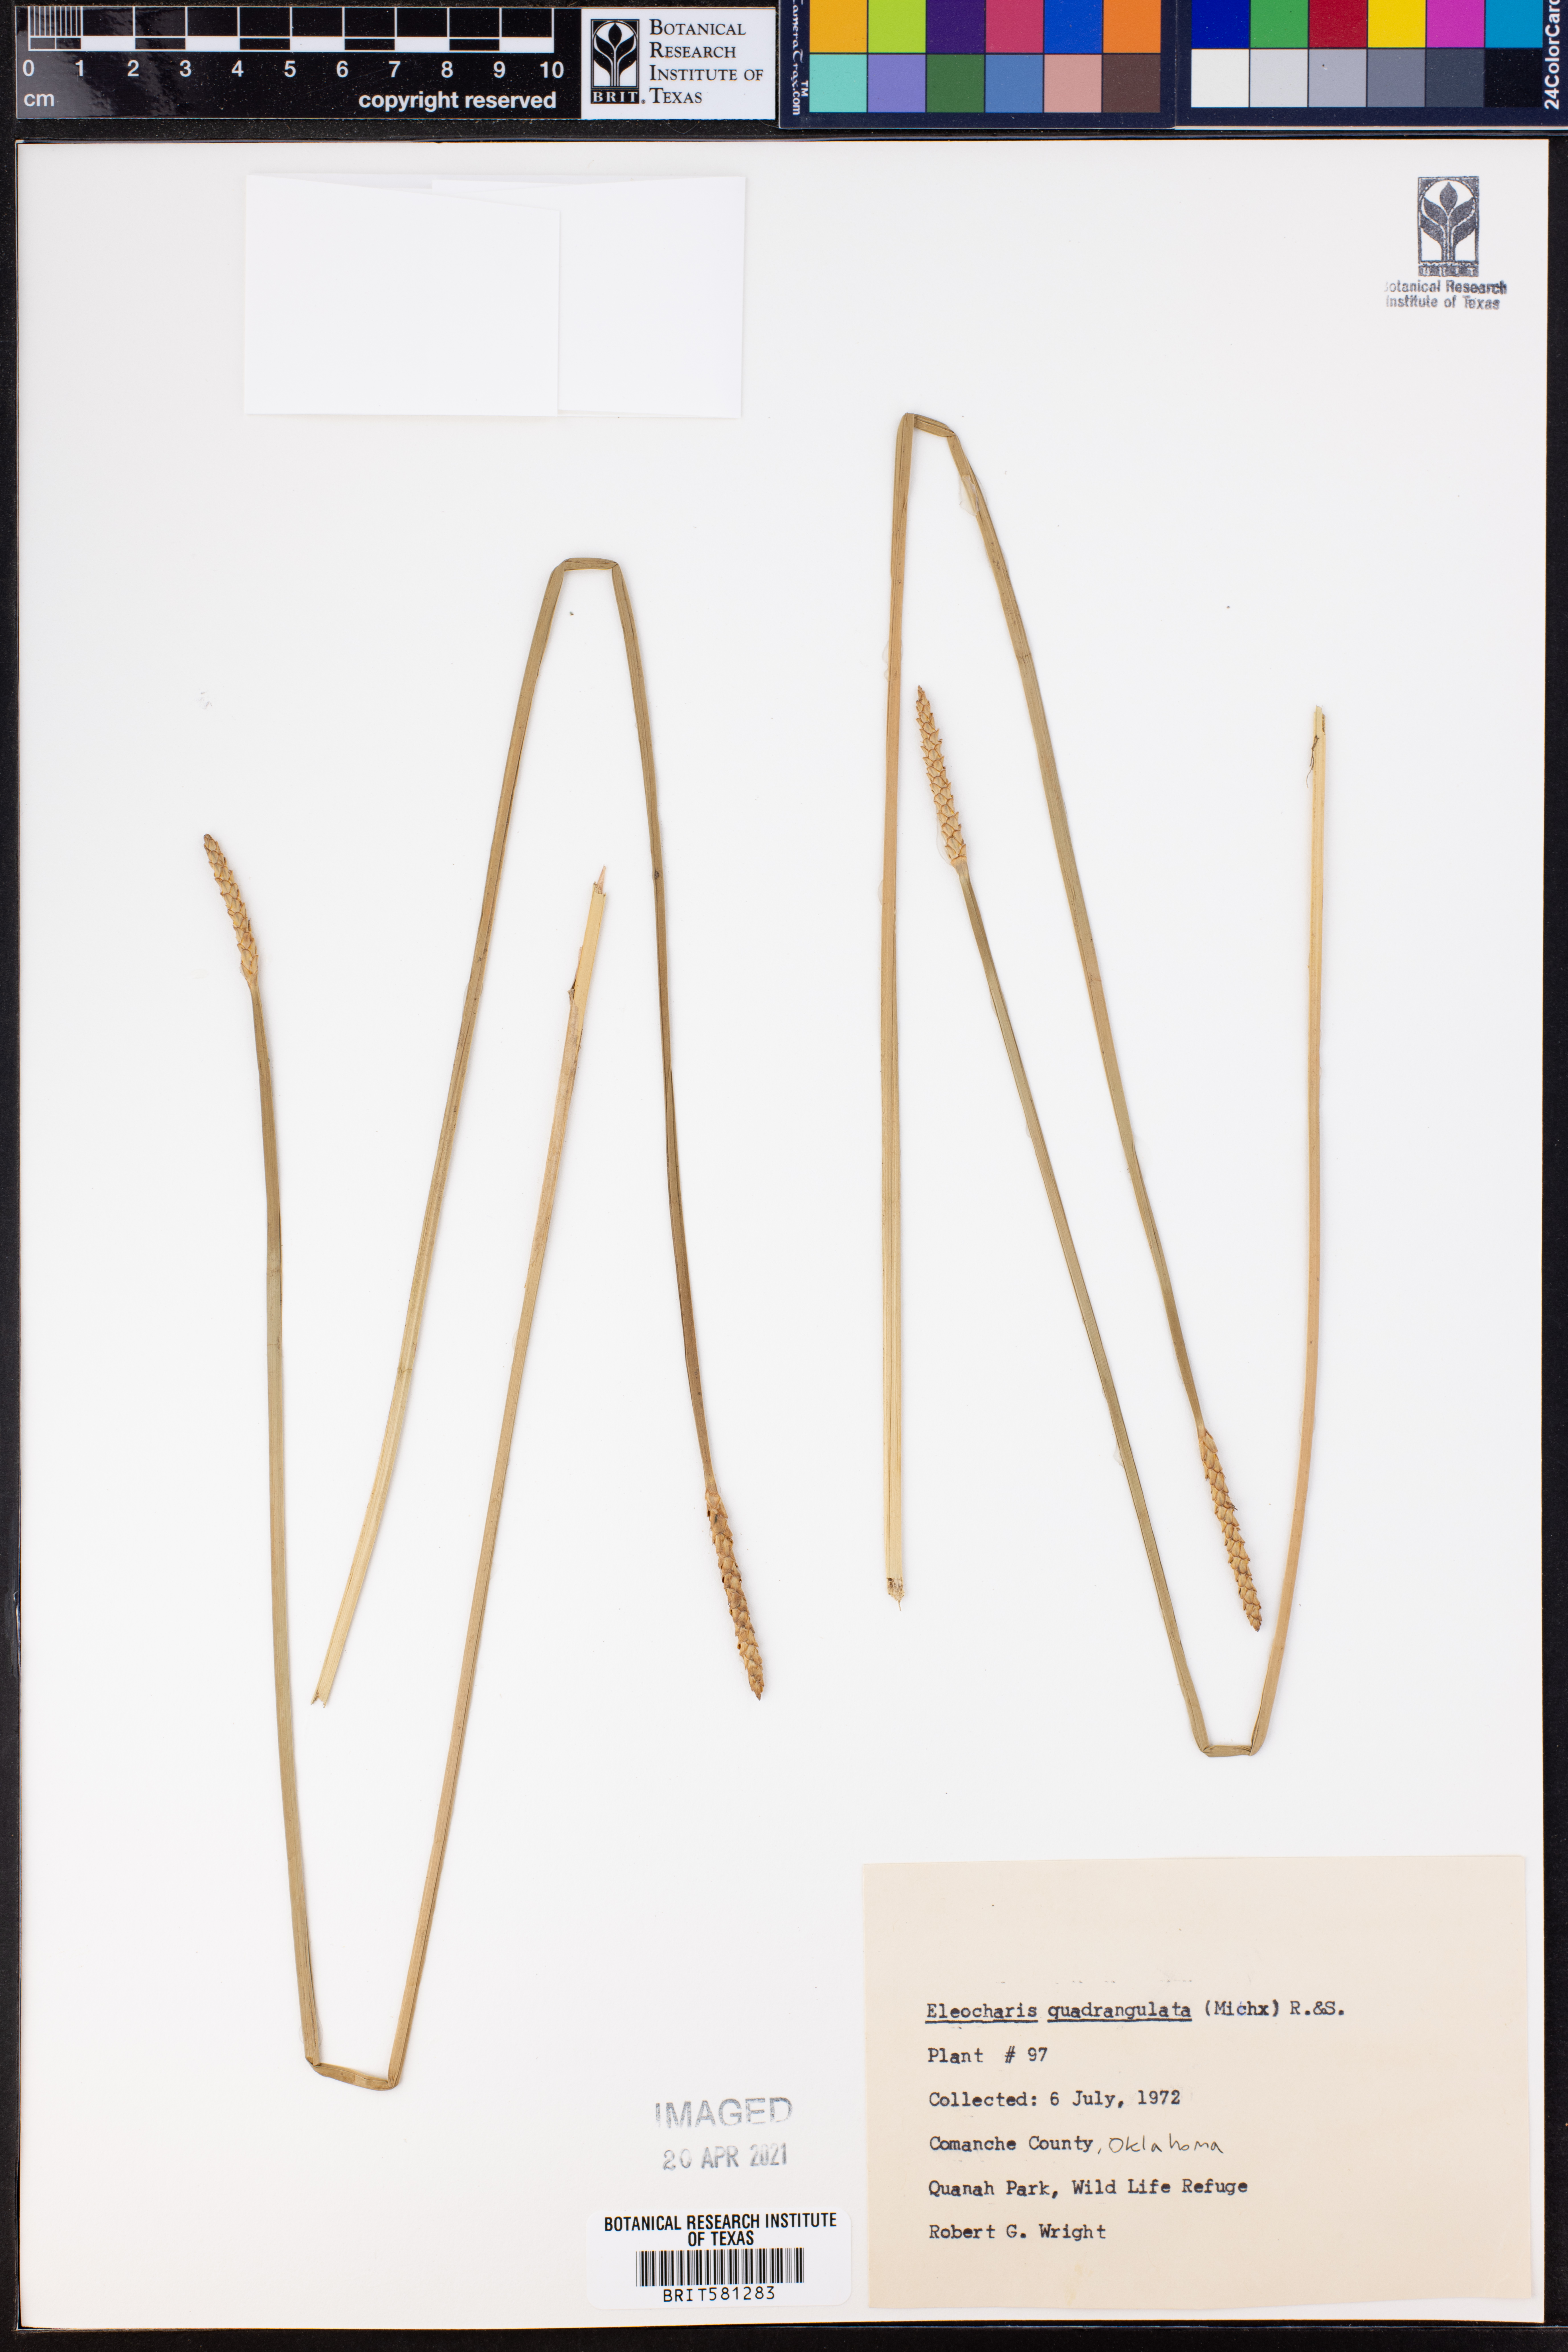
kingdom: Plantae
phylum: Tracheophyta
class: Liliopsida
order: Poales
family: Cyperaceae
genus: Eleocharis
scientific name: Eleocharis quadrangulata
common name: Square-stem spike-rush
